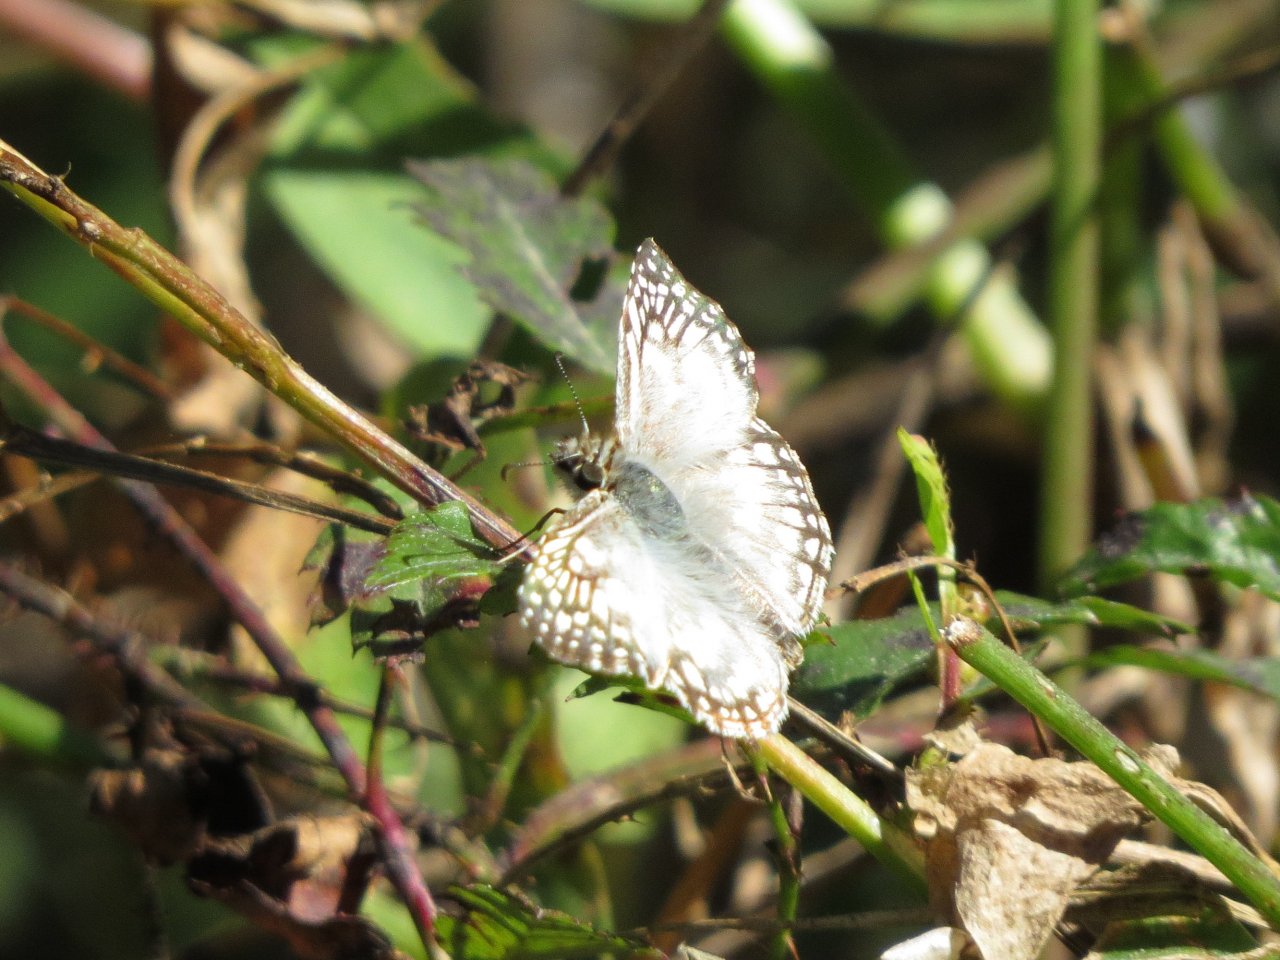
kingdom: Animalia
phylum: Arthropoda
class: Insecta
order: Lepidoptera
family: Hesperiidae
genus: Pyrgus
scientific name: Pyrgus oileus
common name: Tropical Checkered-Skipper
